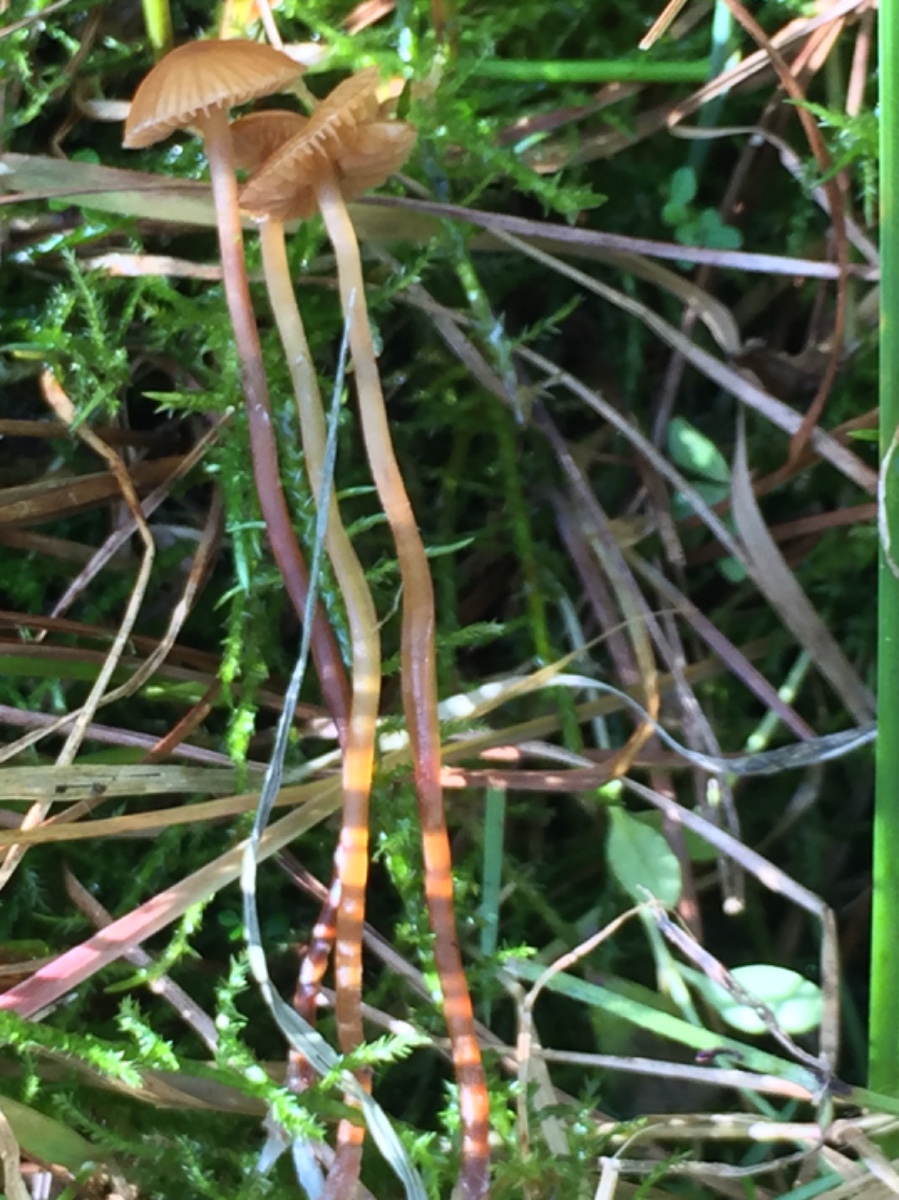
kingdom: Fungi
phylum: Basidiomycota
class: Agaricomycetes
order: Agaricales
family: Hymenogastraceae
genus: Galerina
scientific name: Galerina jaapii
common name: hvidbæltet hjelmhat
